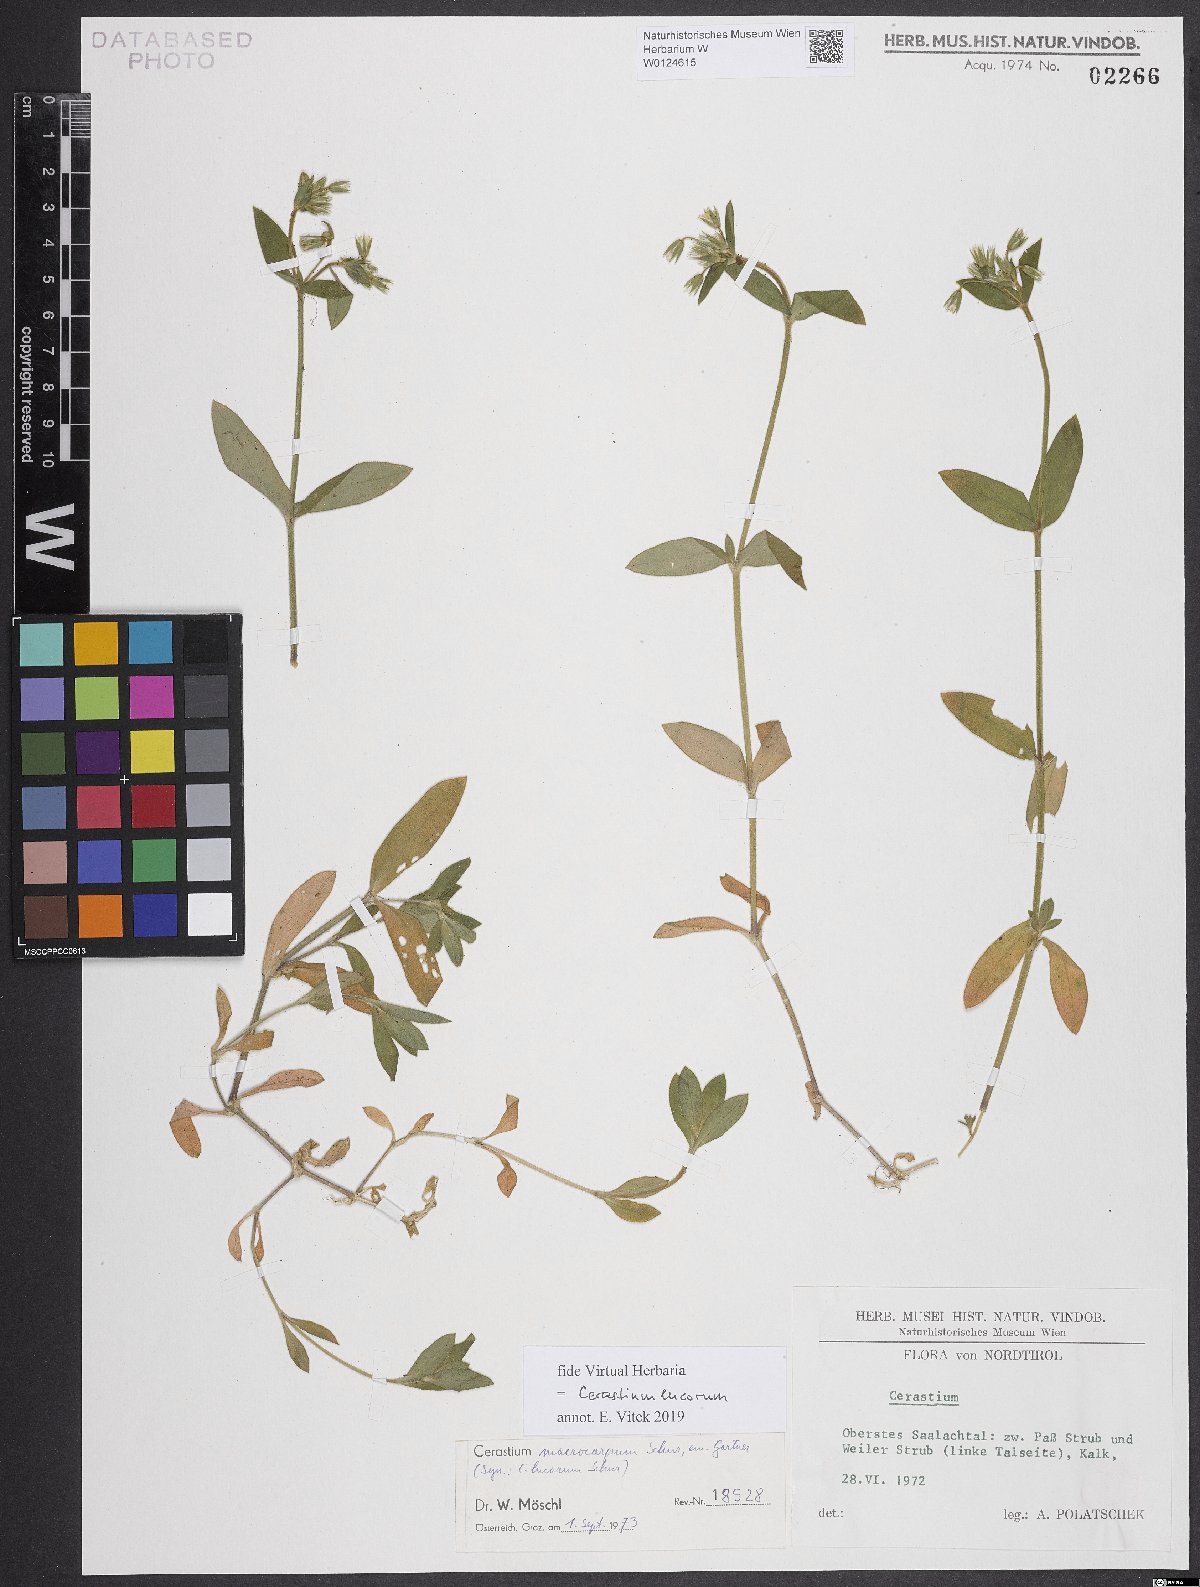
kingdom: Plantae
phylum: Tracheophyta
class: Magnoliopsida
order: Caryophyllales
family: Caryophyllaceae
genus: Cerastium
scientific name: Cerastium lucorum
